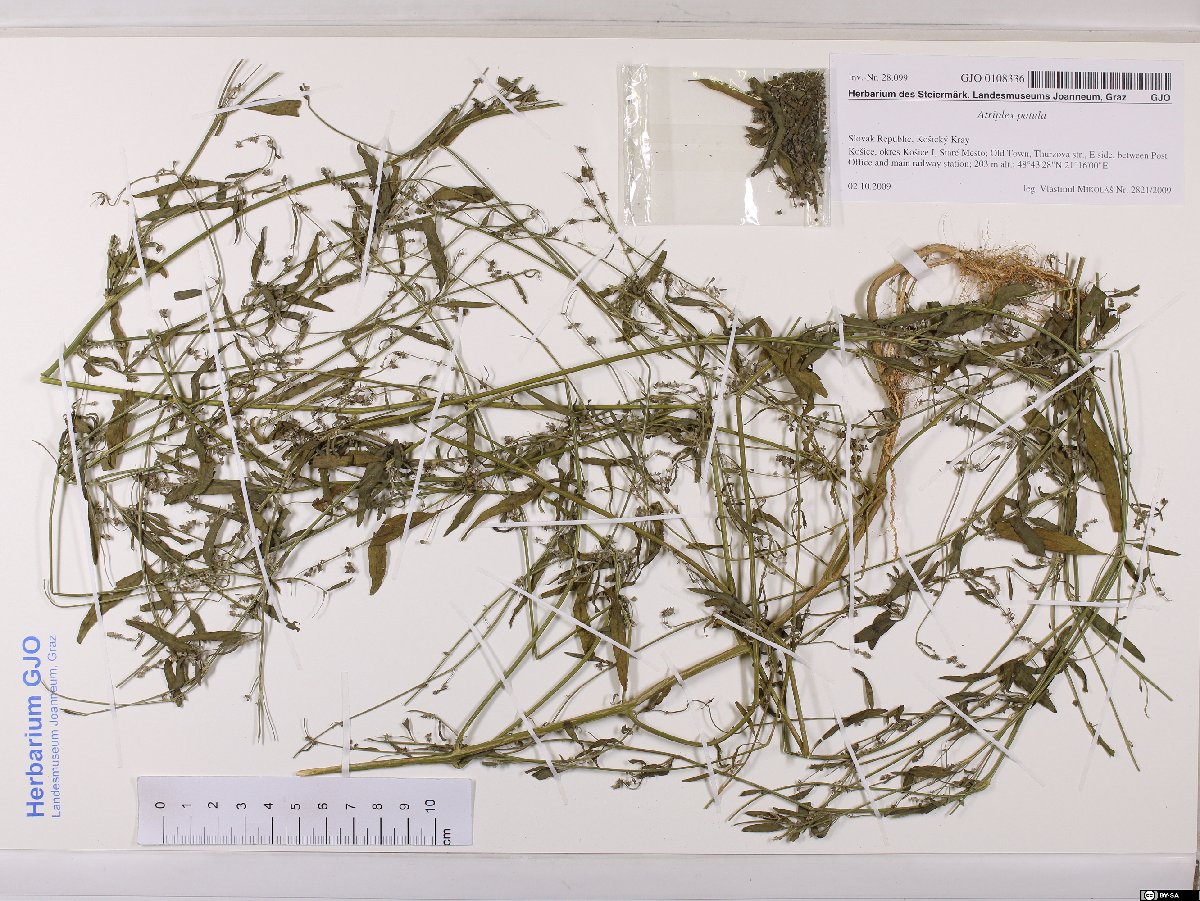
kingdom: Plantae
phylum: Tracheophyta
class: Magnoliopsida
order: Caryophyllales
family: Amaranthaceae
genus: Atriplex
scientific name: Atriplex patula
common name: Common orache
